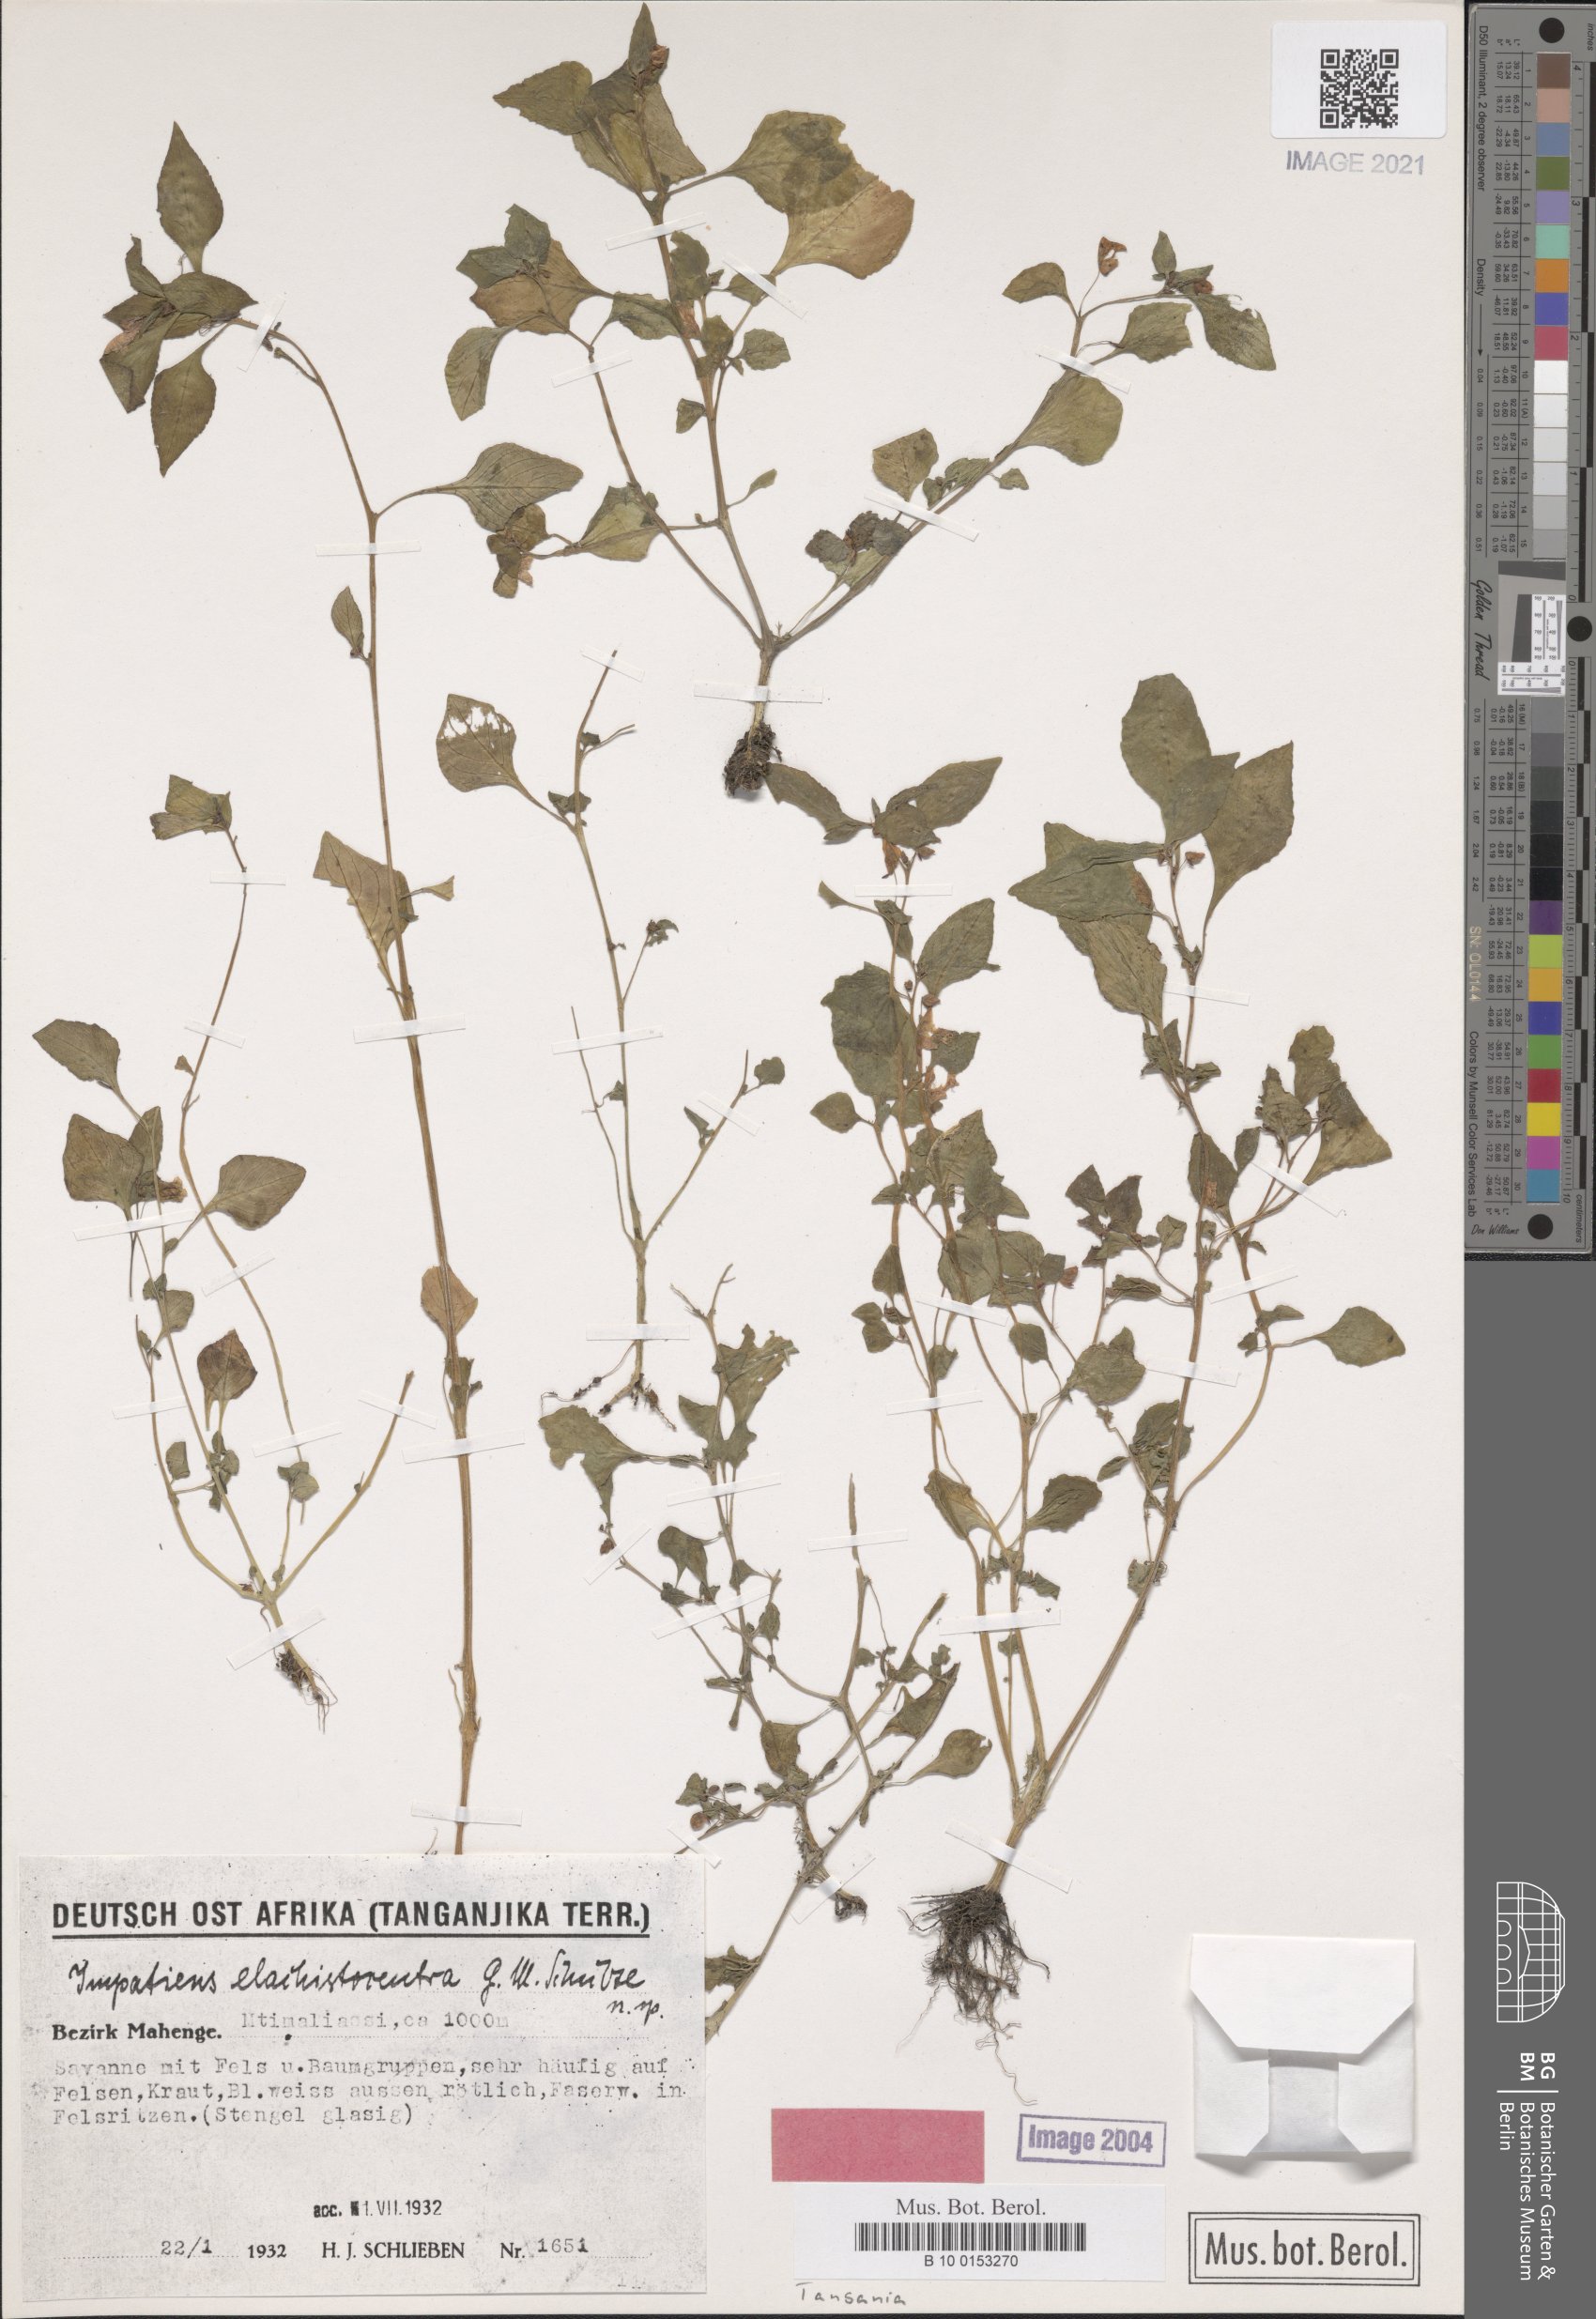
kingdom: Plantae
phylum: Tracheophyta
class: Magnoliopsida
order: Ericales
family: Balsaminaceae
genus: Impatiens
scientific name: Impatiens elachistocentra
